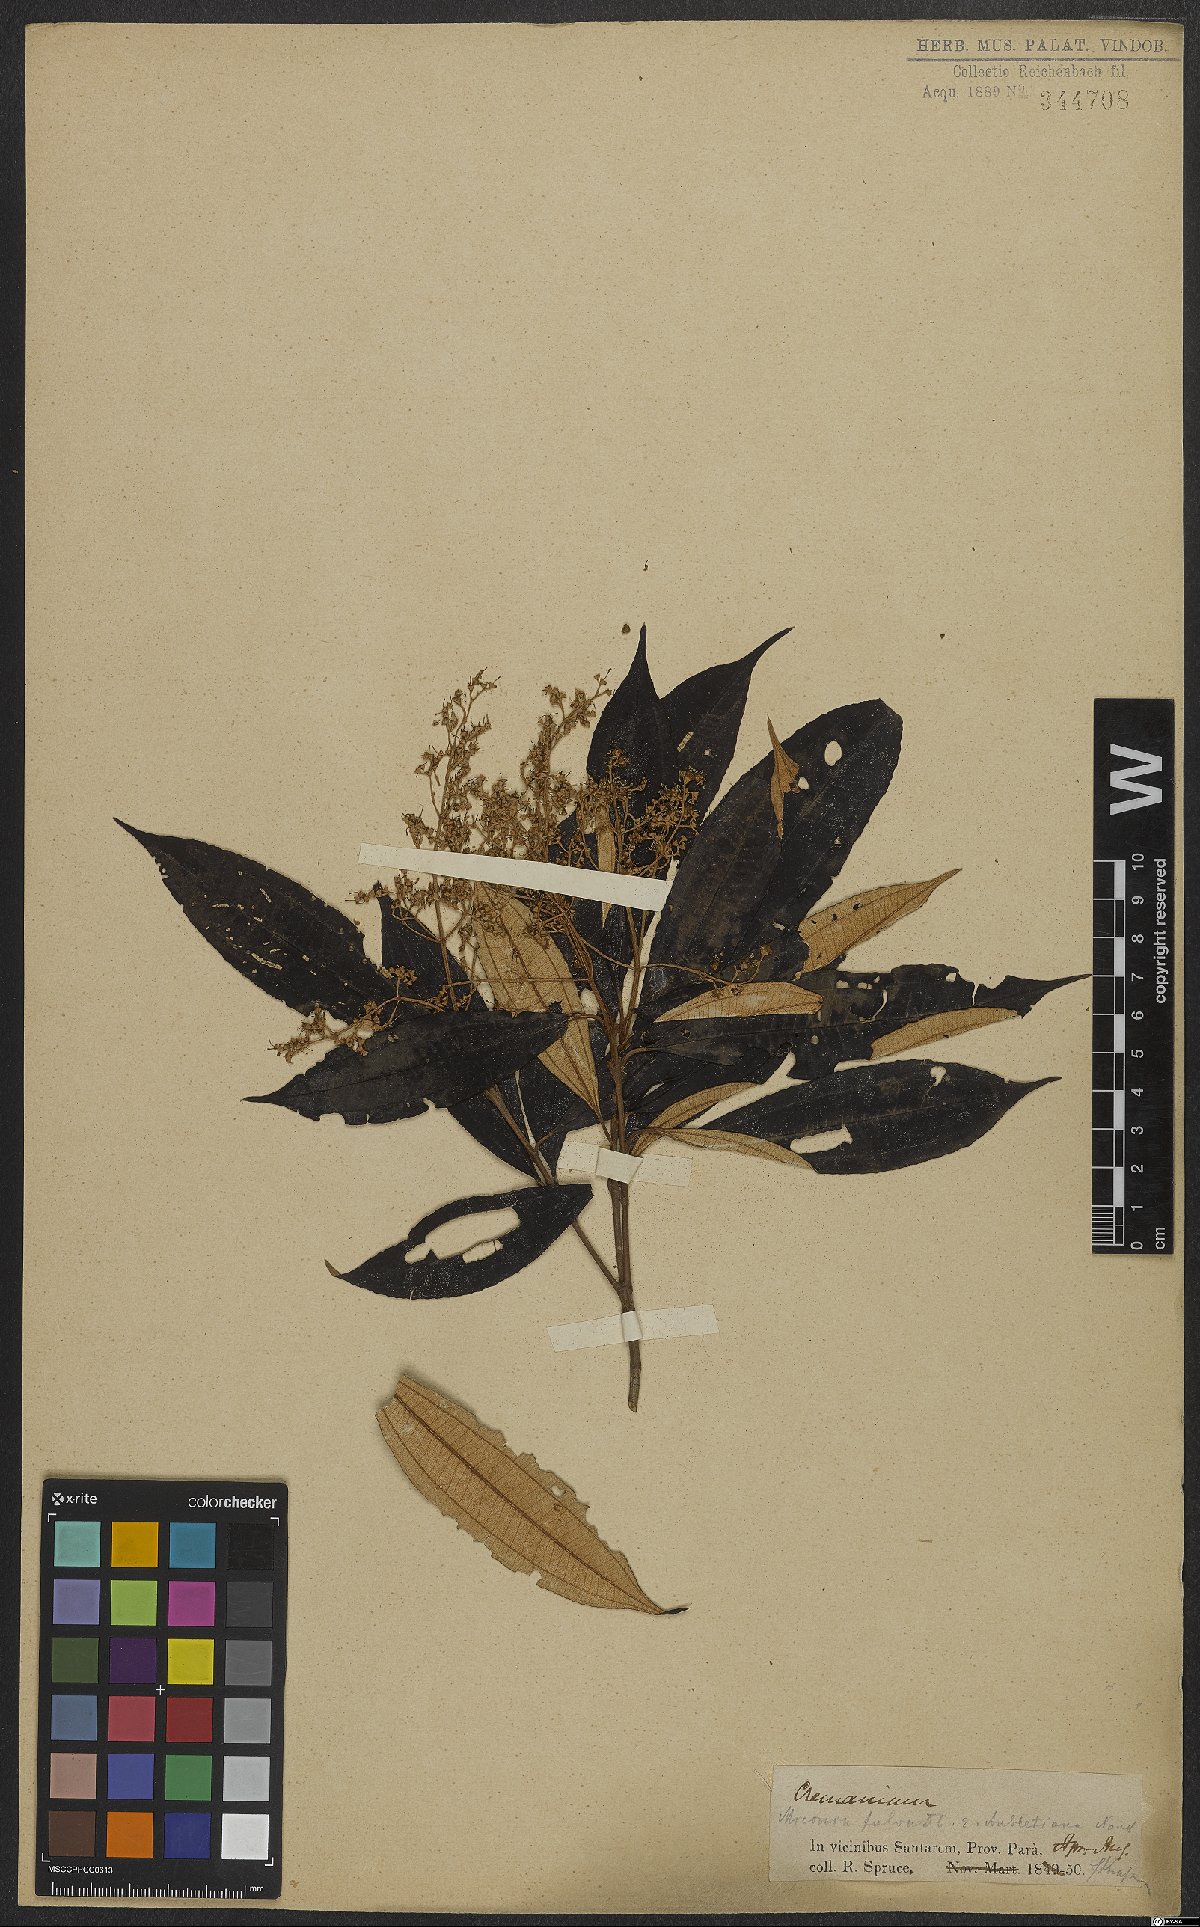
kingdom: Plantae
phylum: Tracheophyta
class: Magnoliopsida
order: Myrtales
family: Melastomataceae
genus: Miconia
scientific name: Miconia chrysophylla
